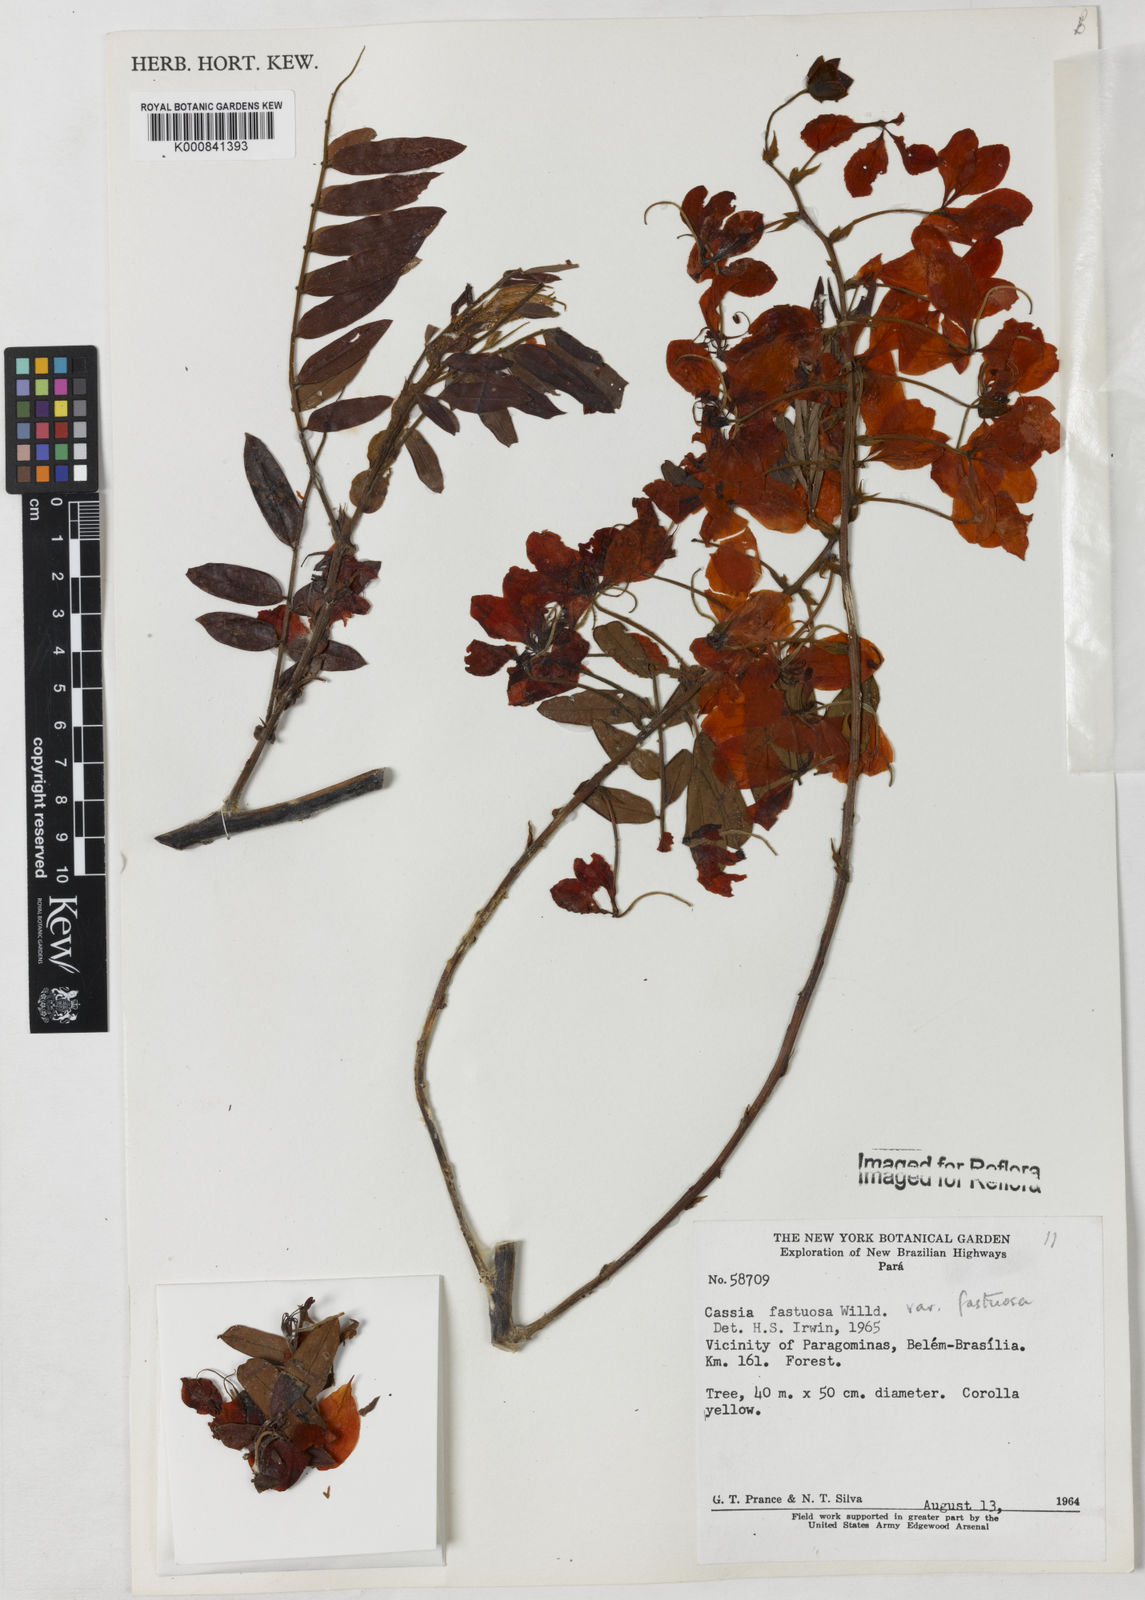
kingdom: Plantae
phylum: Tracheophyta
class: Magnoliopsida
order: Fabales
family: Fabaceae
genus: Cassia
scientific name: Cassia
